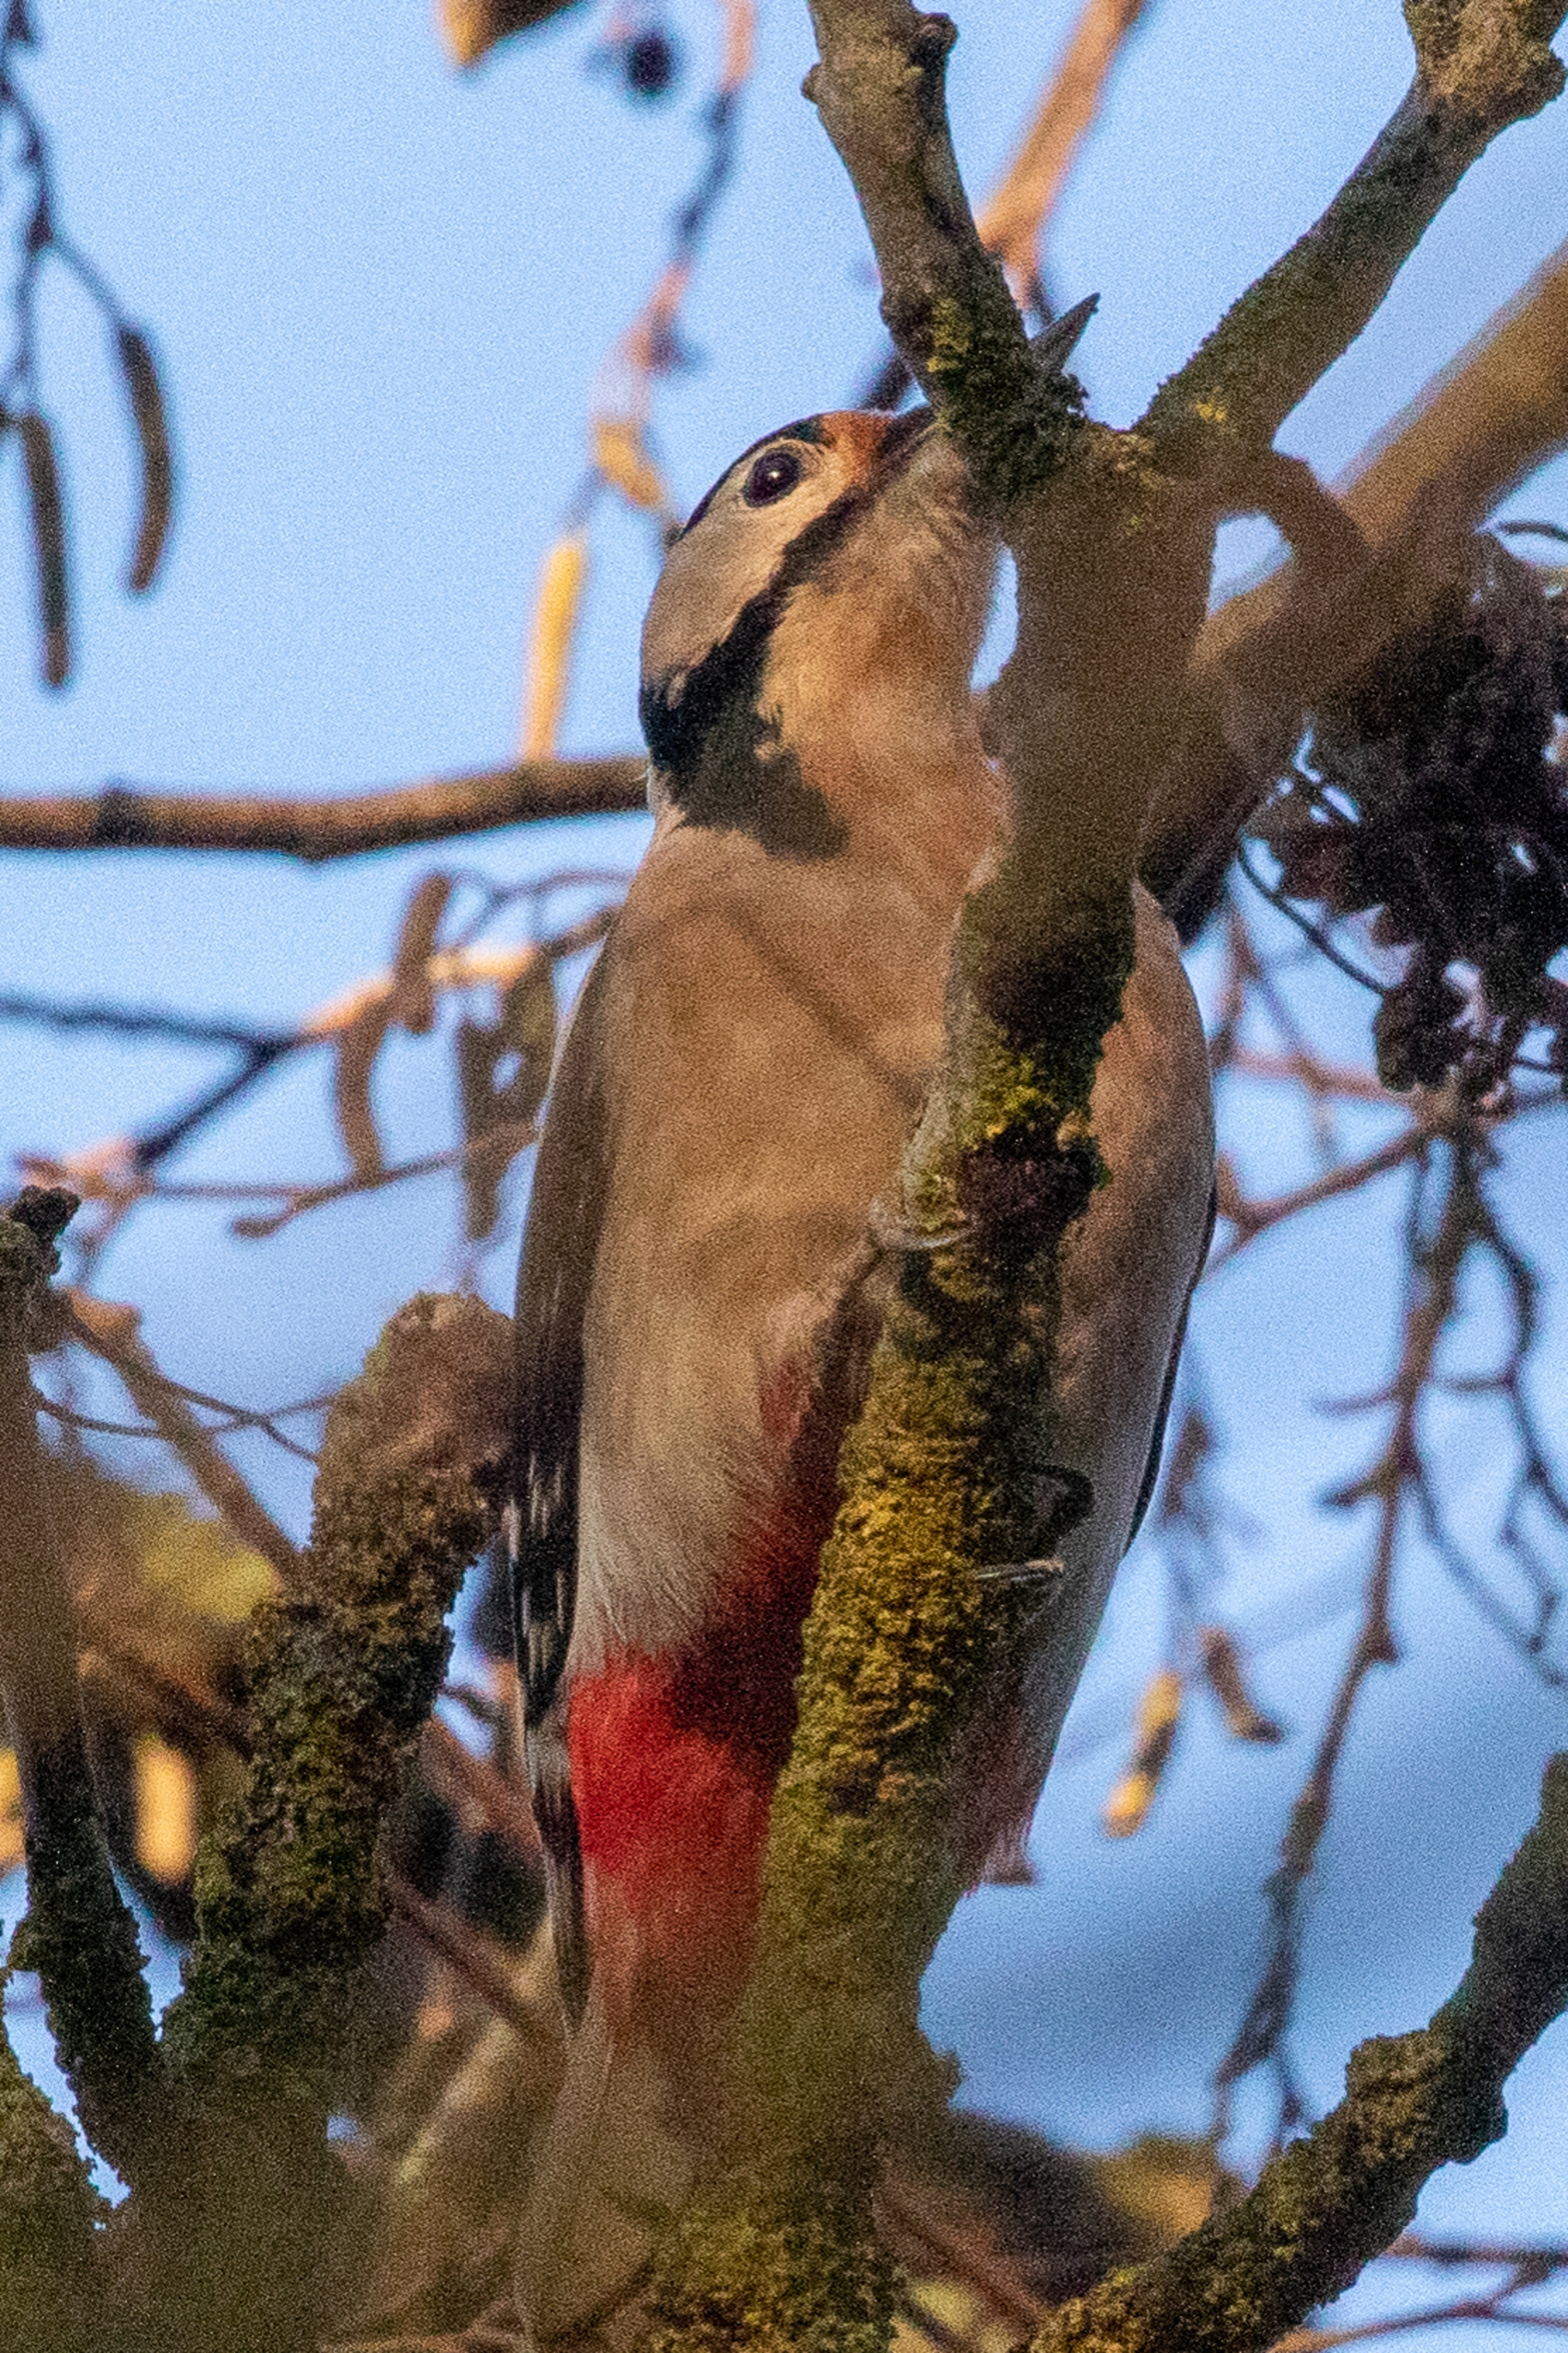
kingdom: Animalia
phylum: Chordata
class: Aves
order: Piciformes
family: Picidae
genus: Dendrocopos
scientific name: Dendrocopos major
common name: Stor flagspætte
